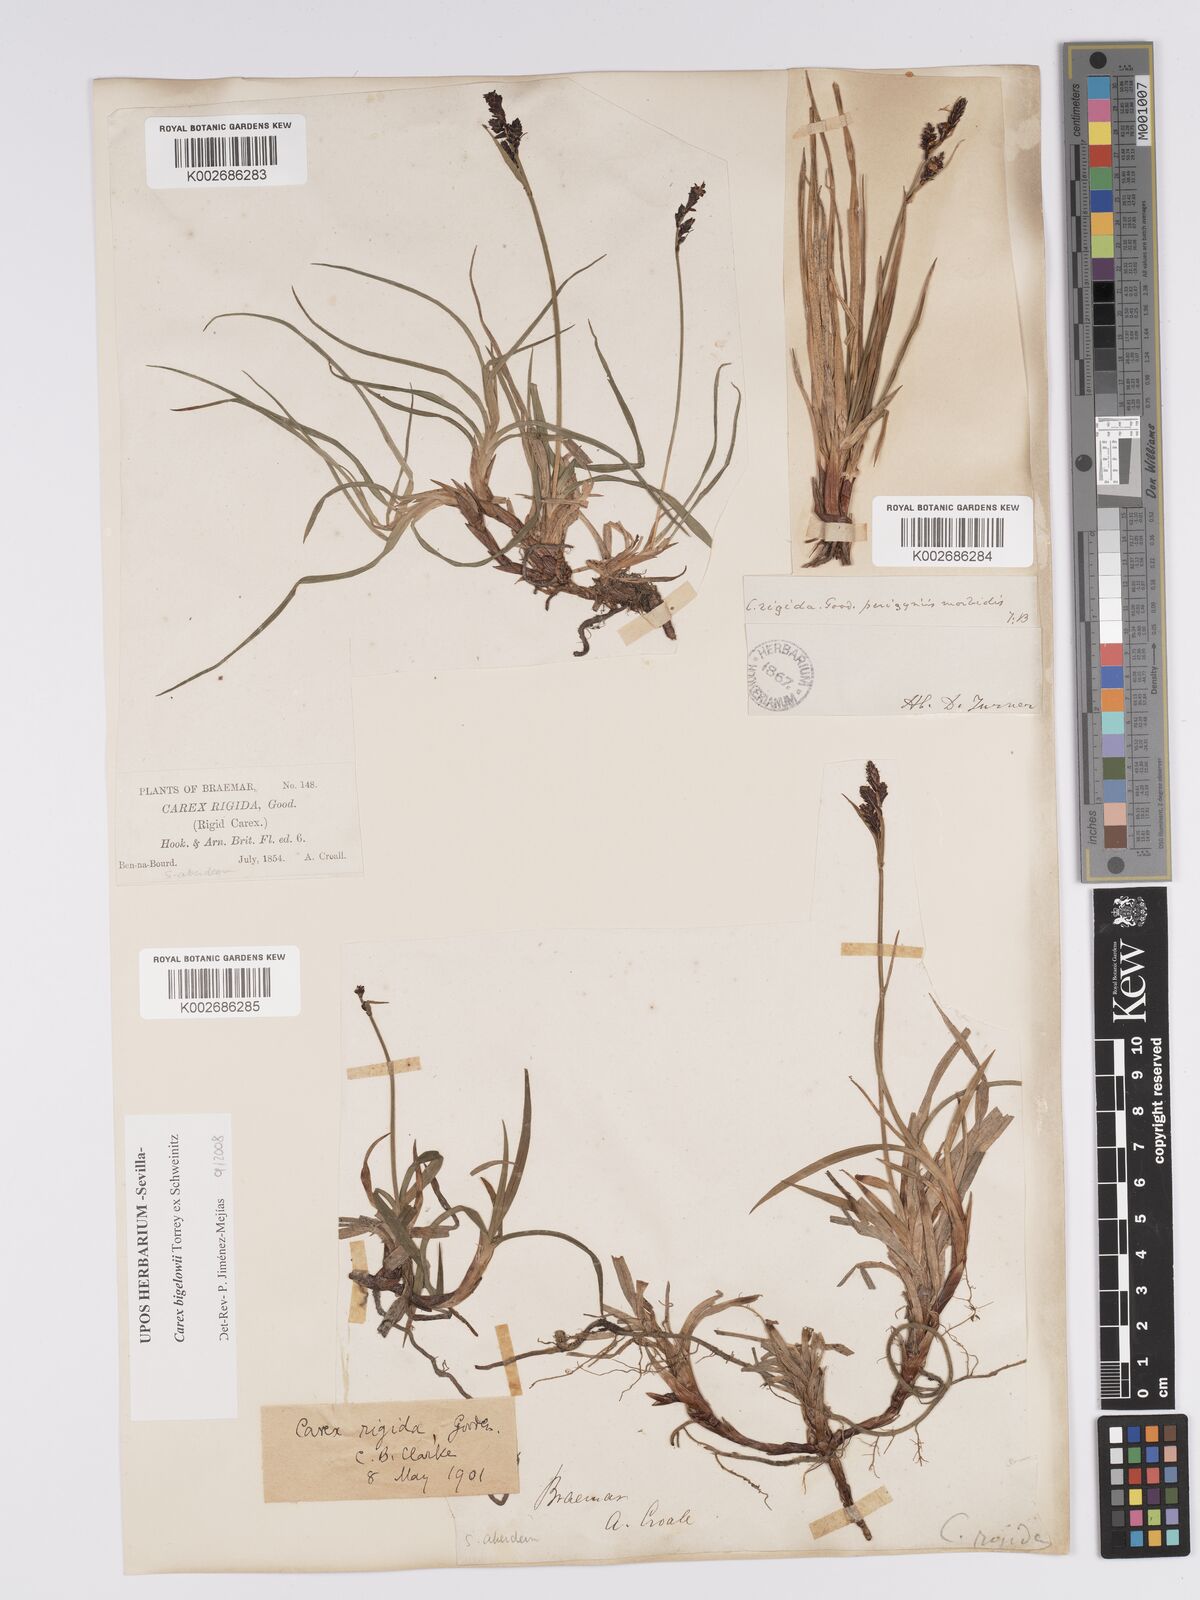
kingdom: Plantae
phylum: Tracheophyta
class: Liliopsida
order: Poales
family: Cyperaceae
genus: Carex
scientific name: Carex bigelowii
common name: Stiff sedge
